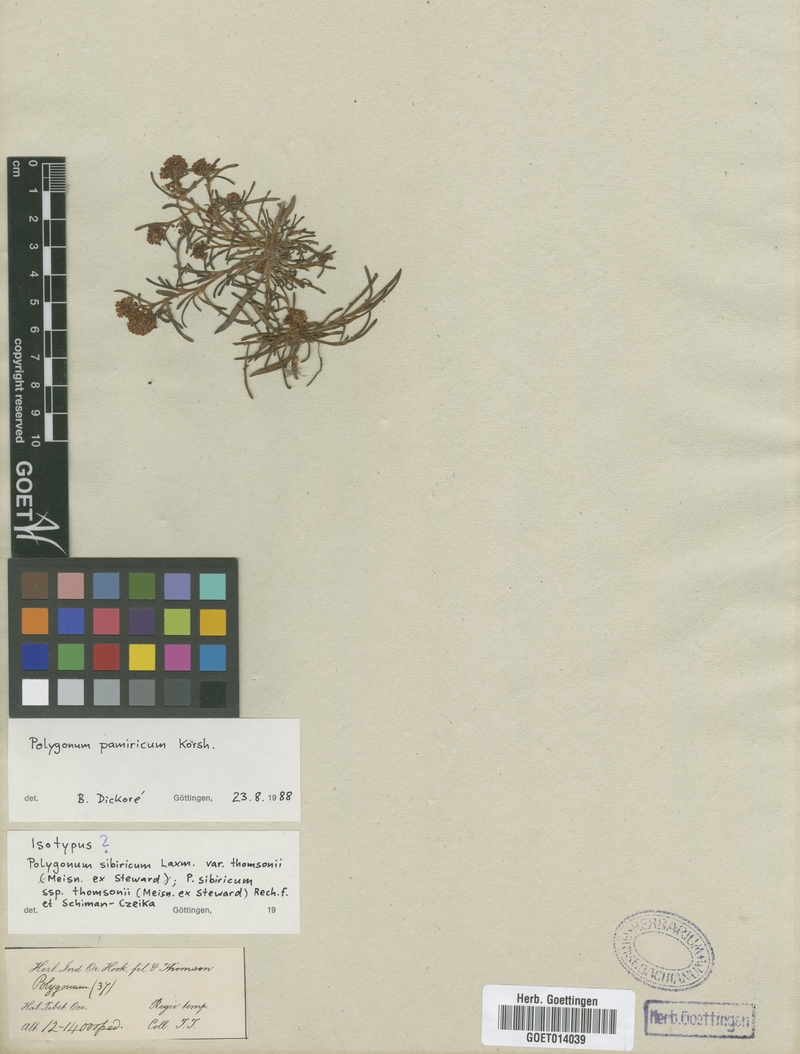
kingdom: Plantae
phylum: Tracheophyta
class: Magnoliopsida
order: Caryophyllales
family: Polygonaceae
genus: Knorringia
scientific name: Knorringia sibirica
